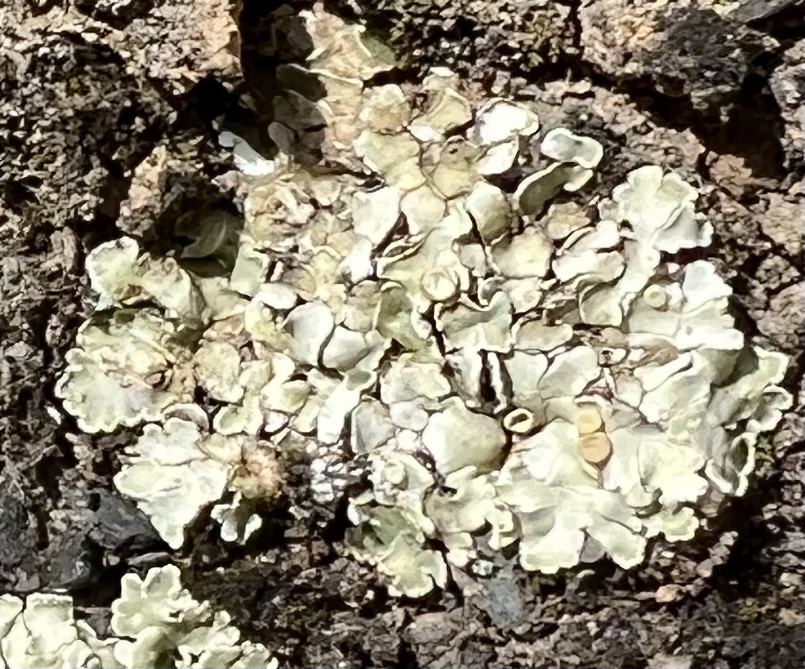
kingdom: Fungi
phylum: Ascomycota
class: Lecanoromycetes
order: Lecanorales
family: Stereocaulaceae
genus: Squamarina
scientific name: Squamarina
